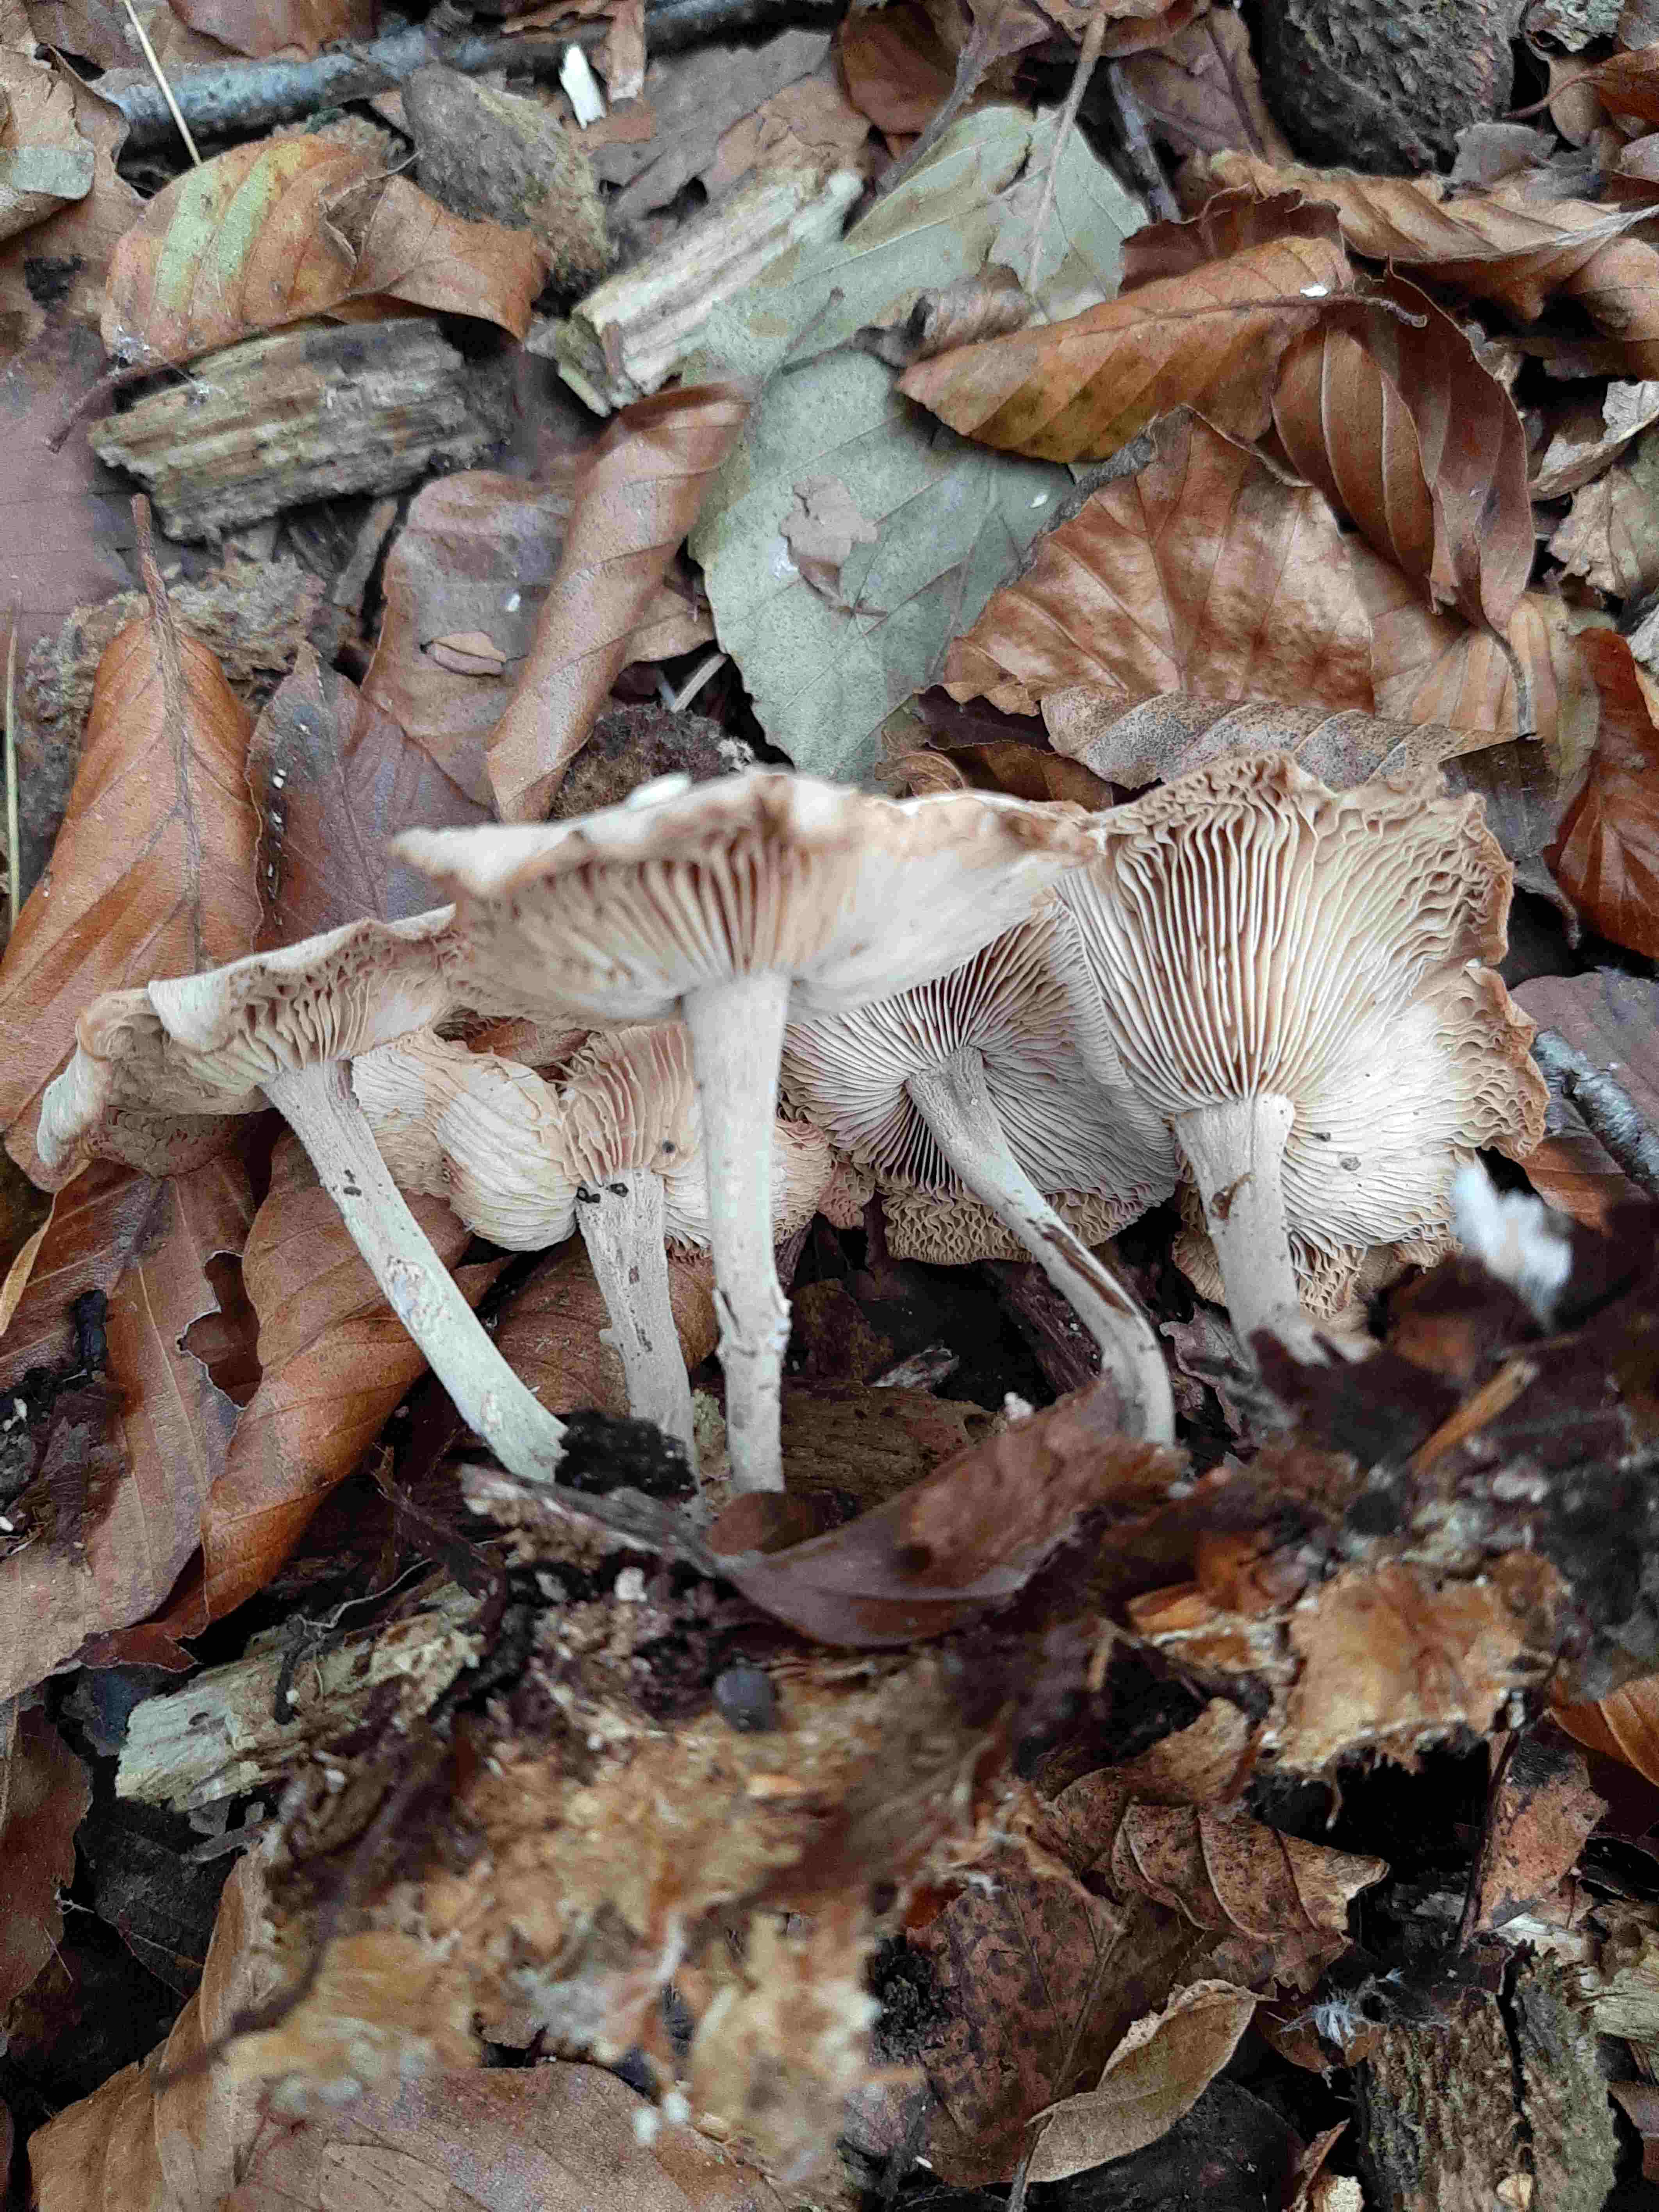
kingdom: Fungi
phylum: Basidiomycota
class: Agaricomycetes
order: Agaricales
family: Omphalotaceae
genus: Collybiopsis
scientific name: Collybiopsis confluens
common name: knippe-fladhat
